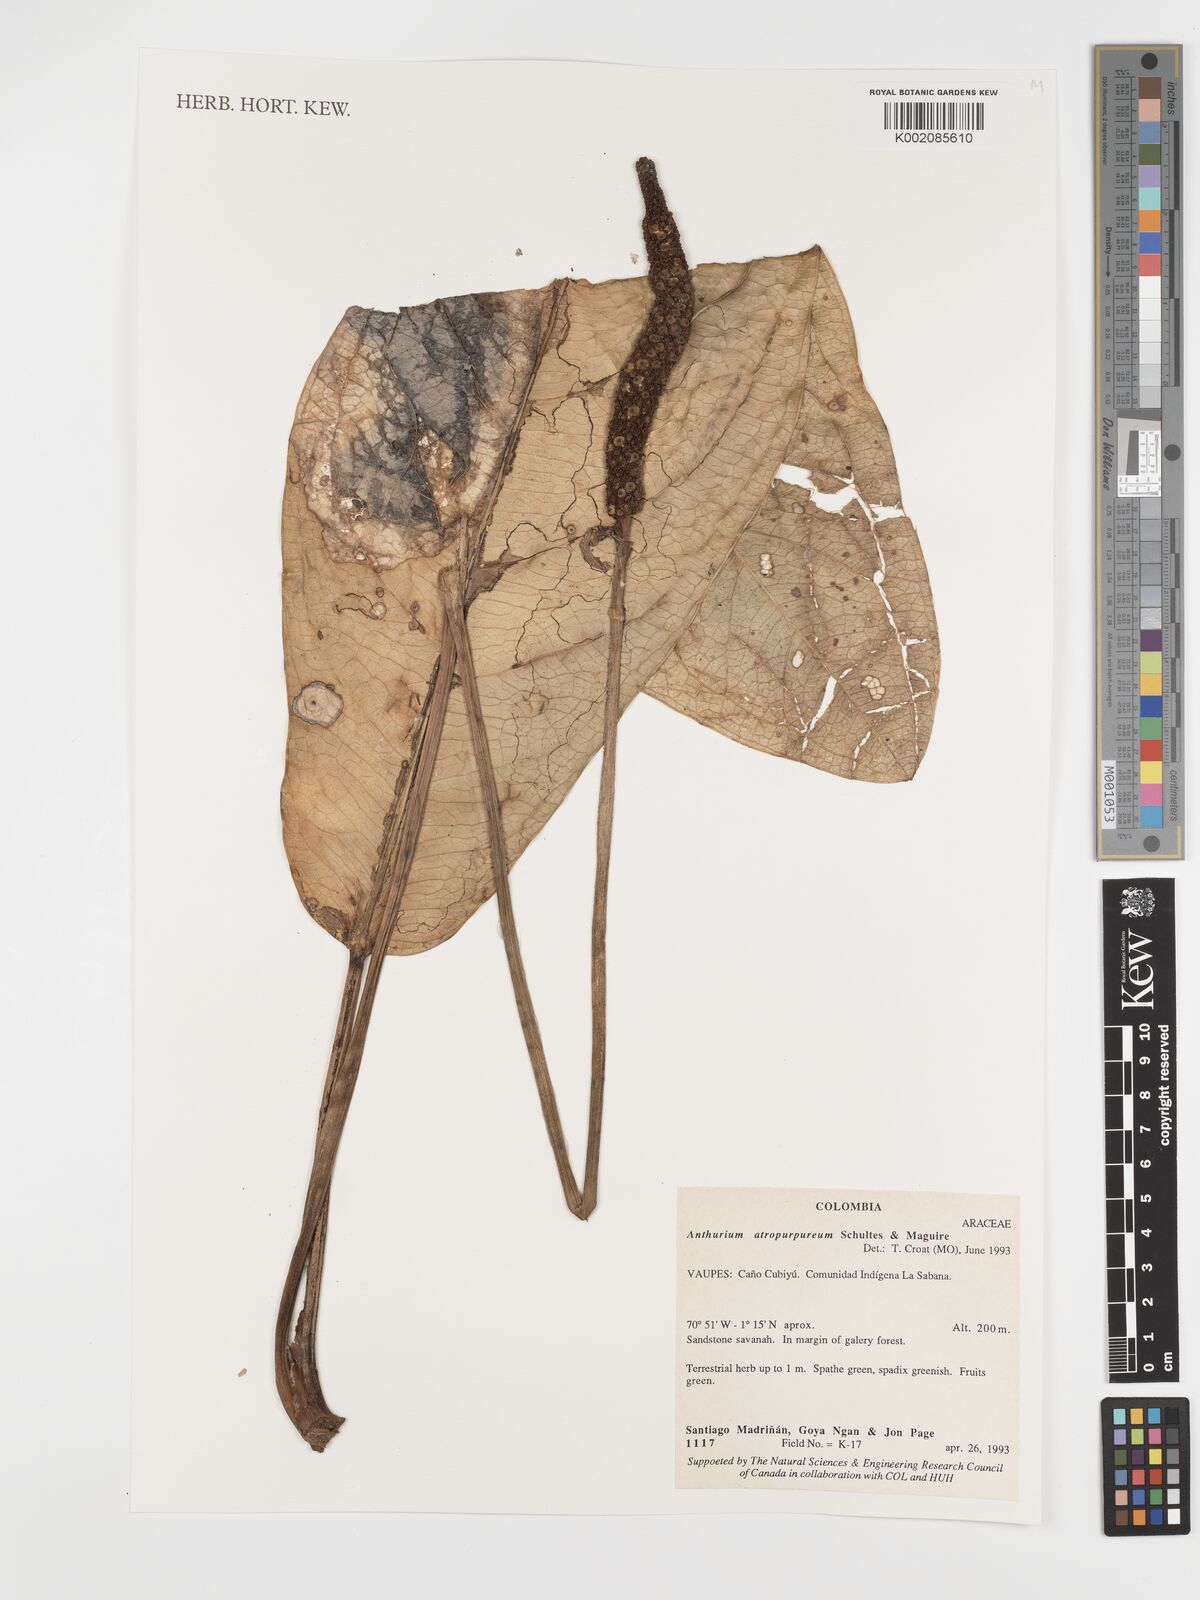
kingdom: Plantae
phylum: Tracheophyta
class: Liliopsida
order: Alismatales
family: Araceae
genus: Anthurium
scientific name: Anthurium atropurpureum
